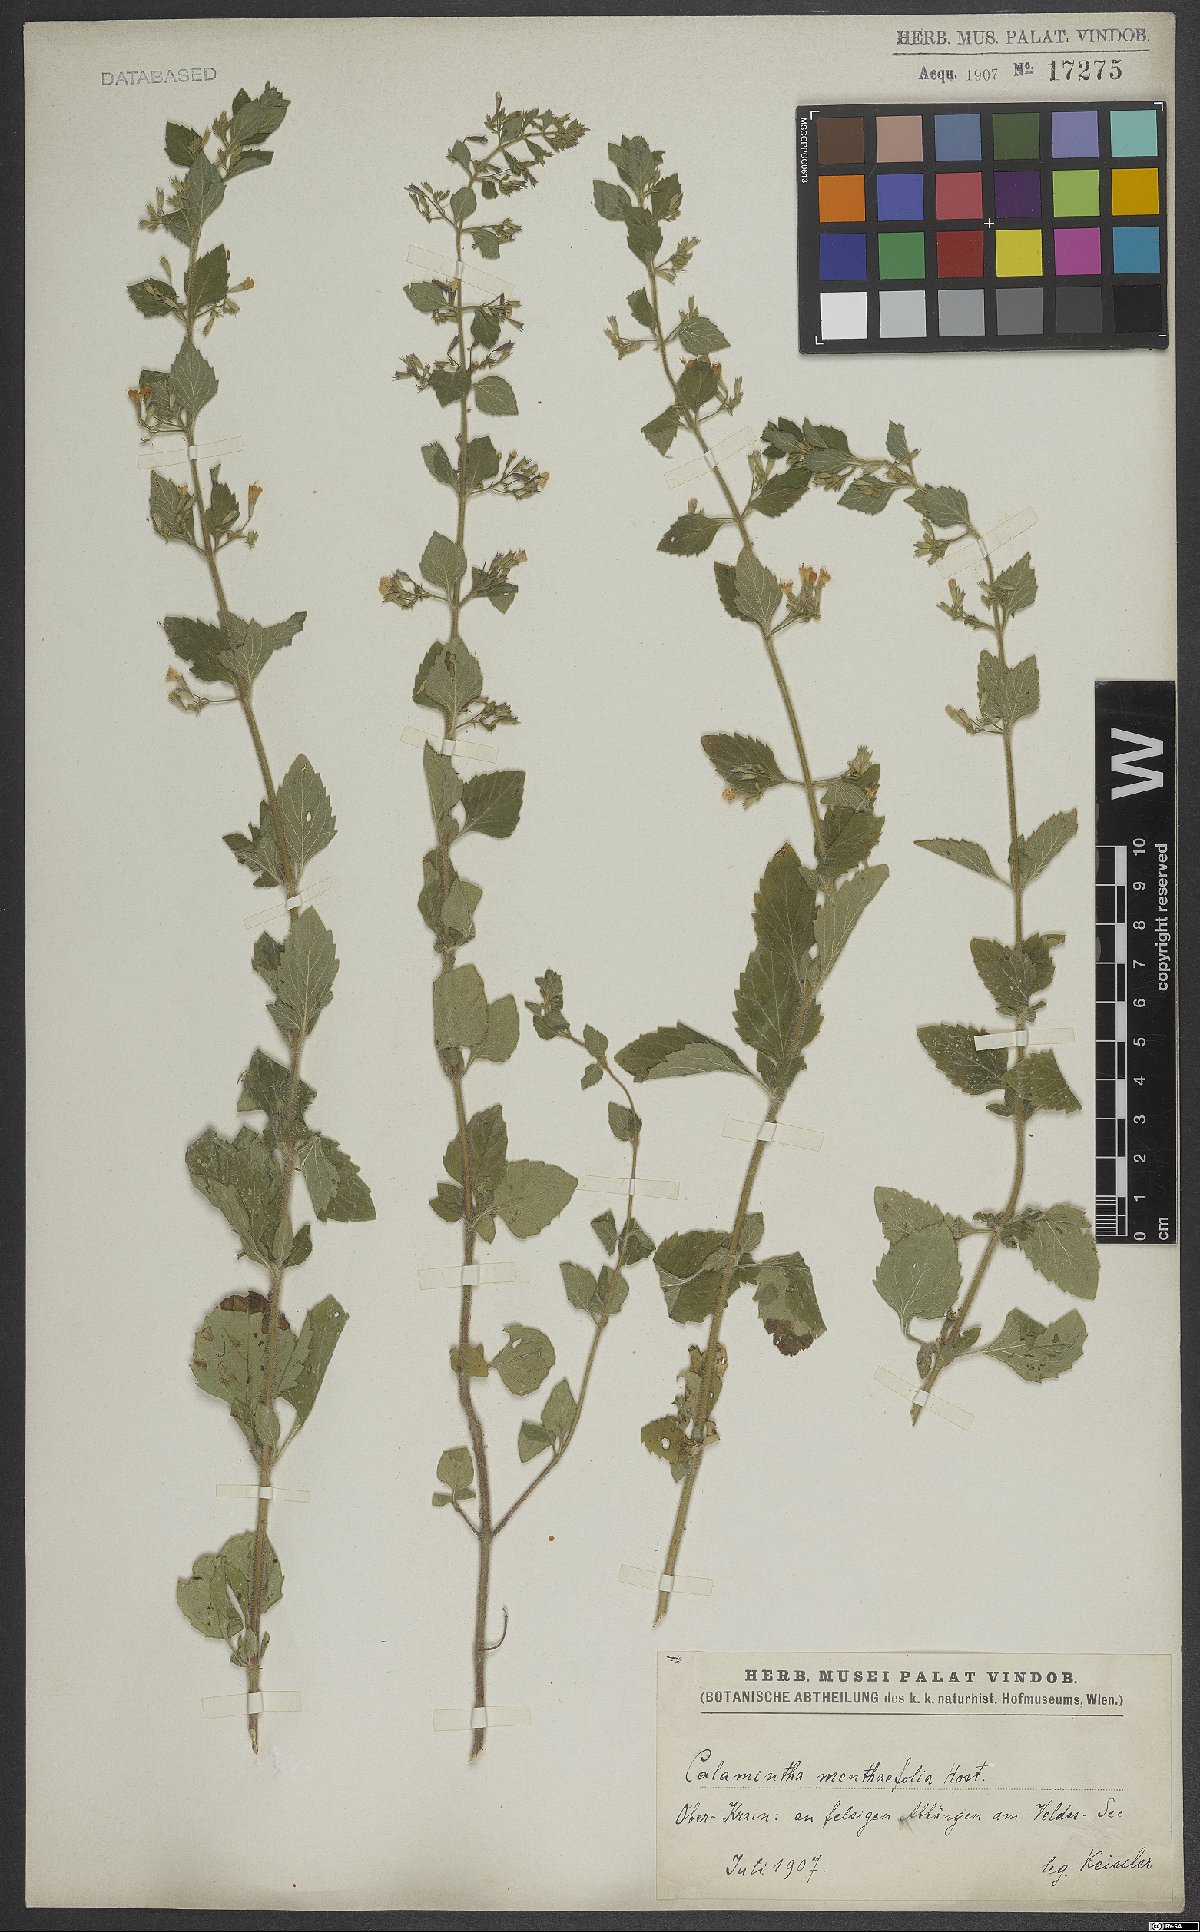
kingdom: Plantae
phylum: Tracheophyta
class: Magnoliopsida
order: Lamiales
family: Lamiaceae
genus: Calamintha
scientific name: Calamintha
